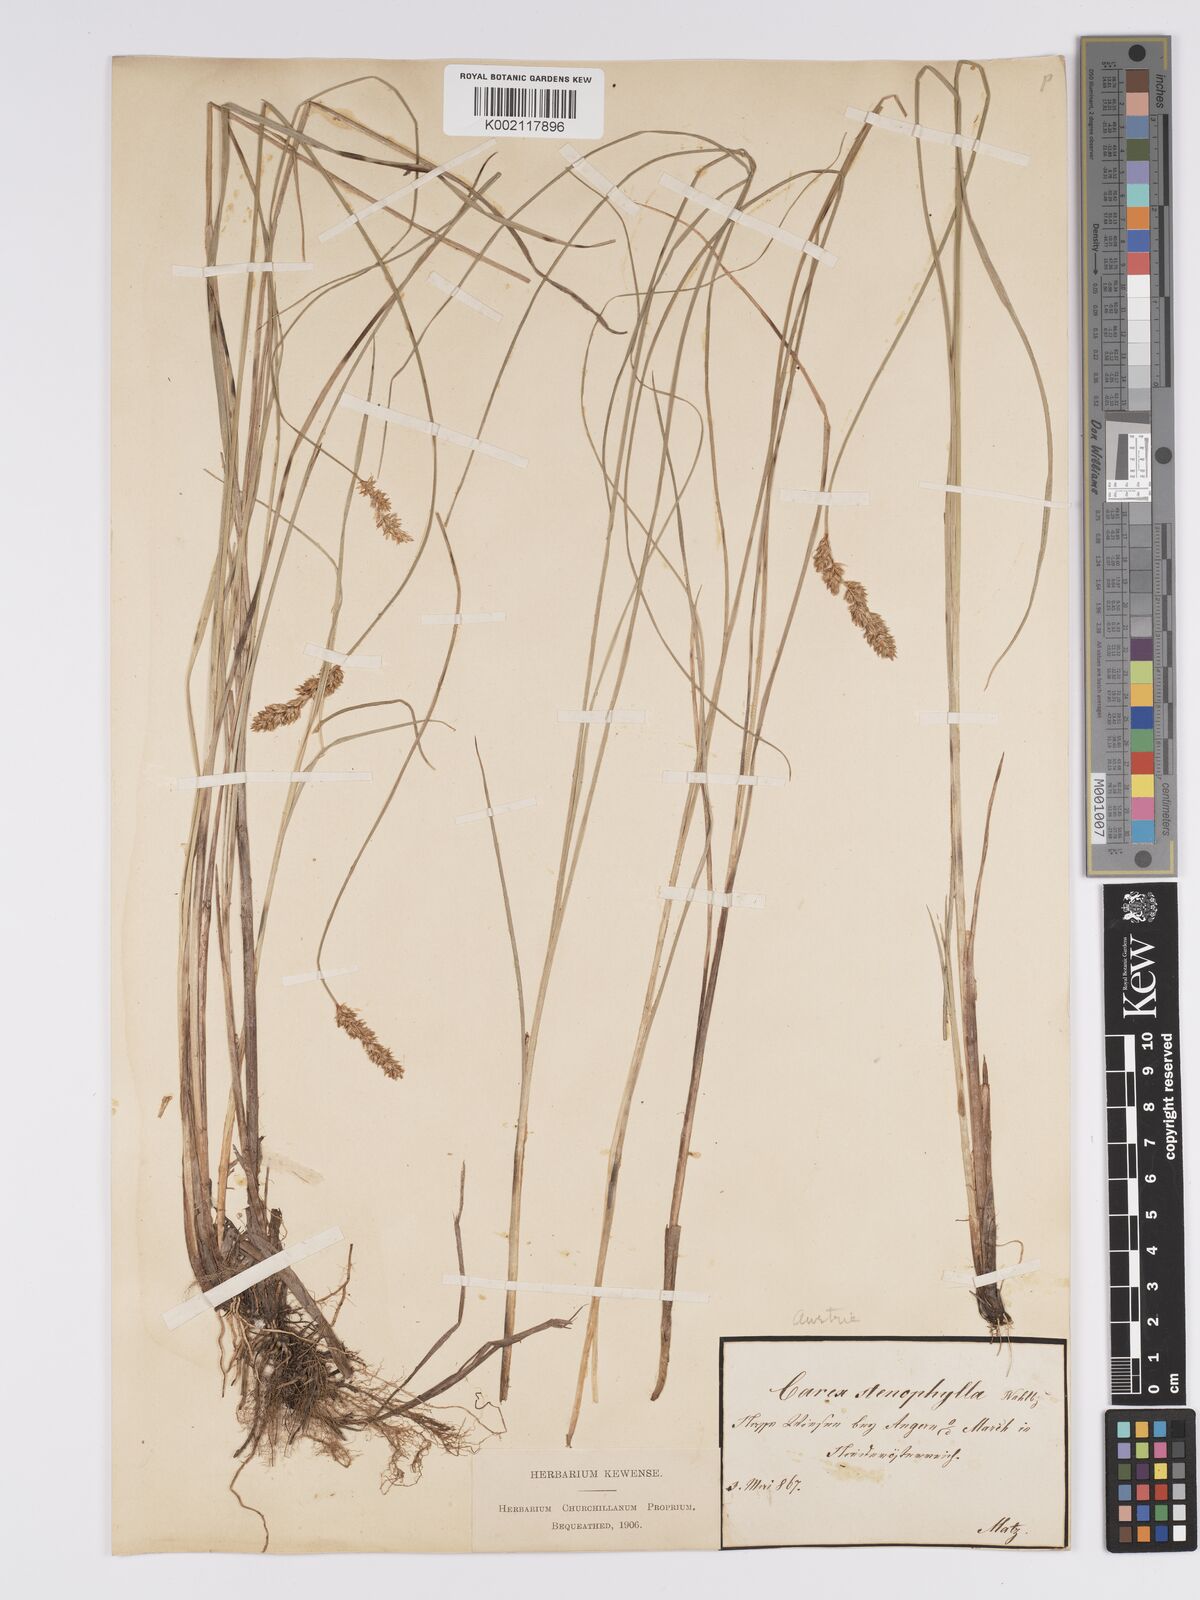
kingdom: Plantae
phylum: Tracheophyta
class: Liliopsida
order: Poales
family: Cyperaceae
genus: Carex
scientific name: Carex diandra
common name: Lesser tussock-sedge
